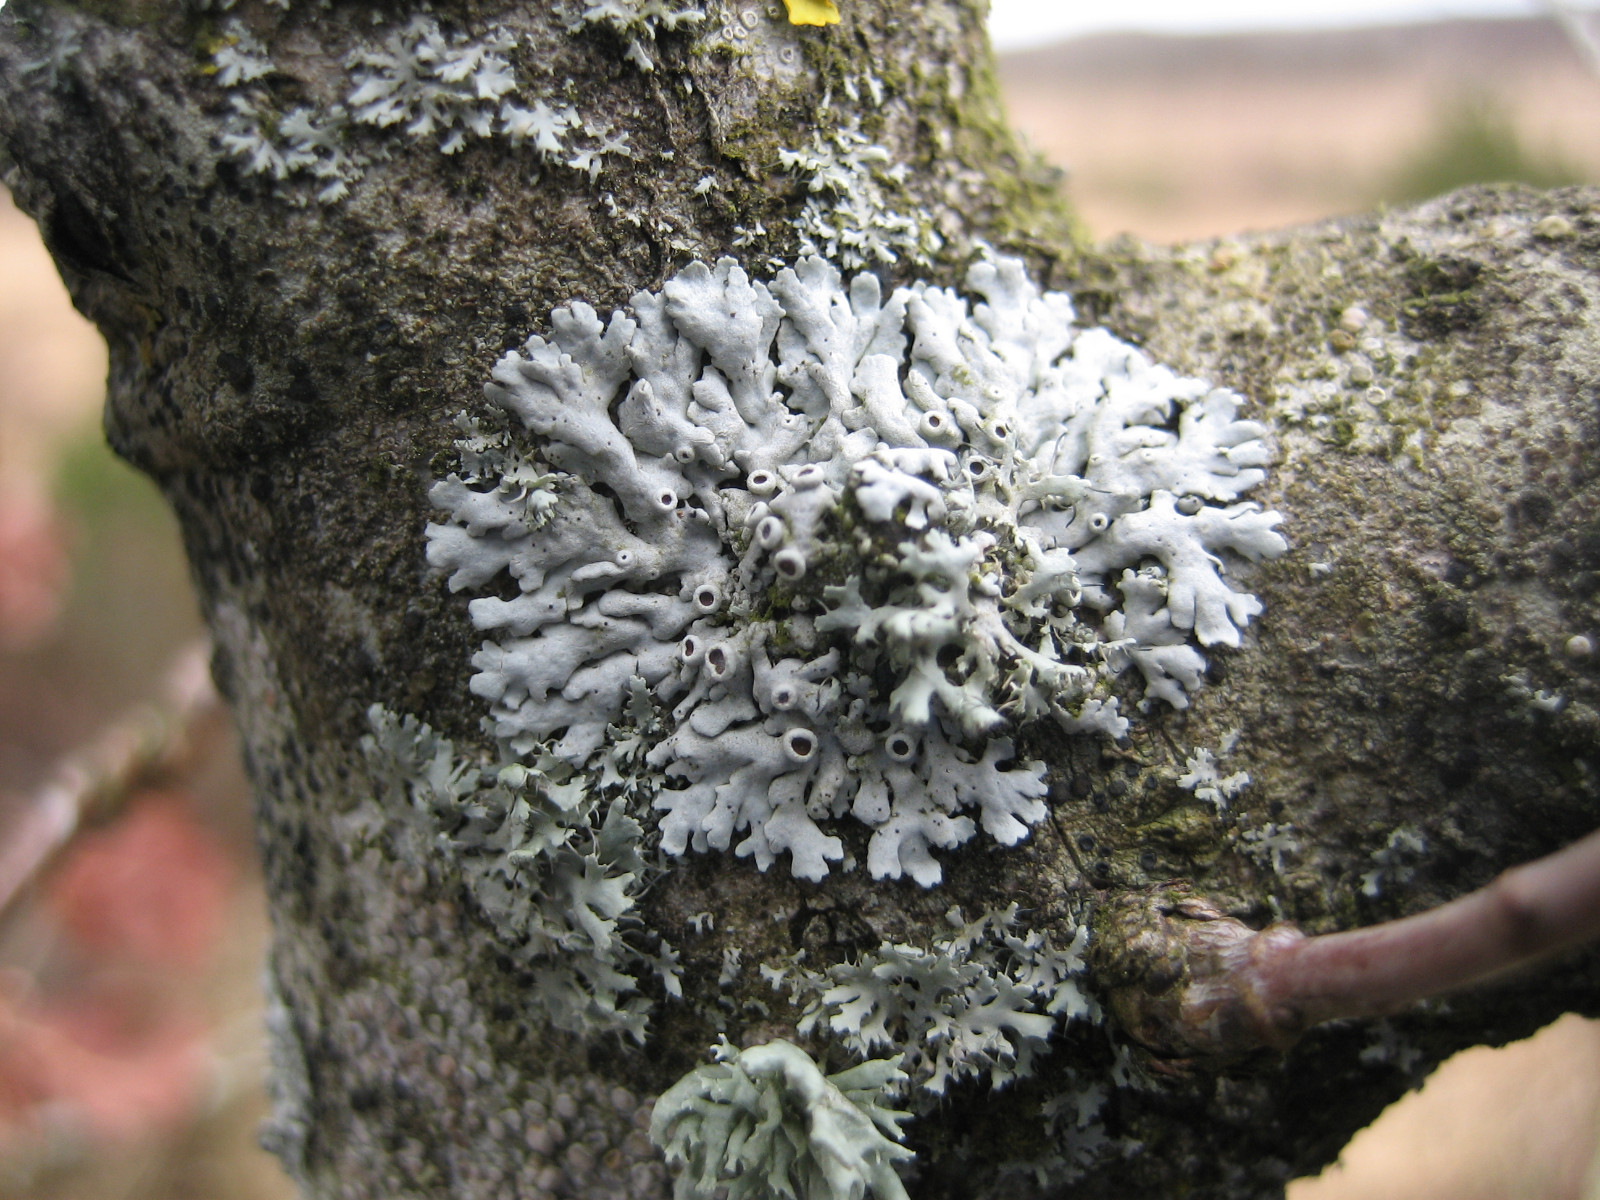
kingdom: Fungi
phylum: Ascomycota
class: Lecanoromycetes
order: Caliciales
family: Physciaceae
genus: Physcia
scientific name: Physcia stellaris
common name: stjerneformet rosetlav
